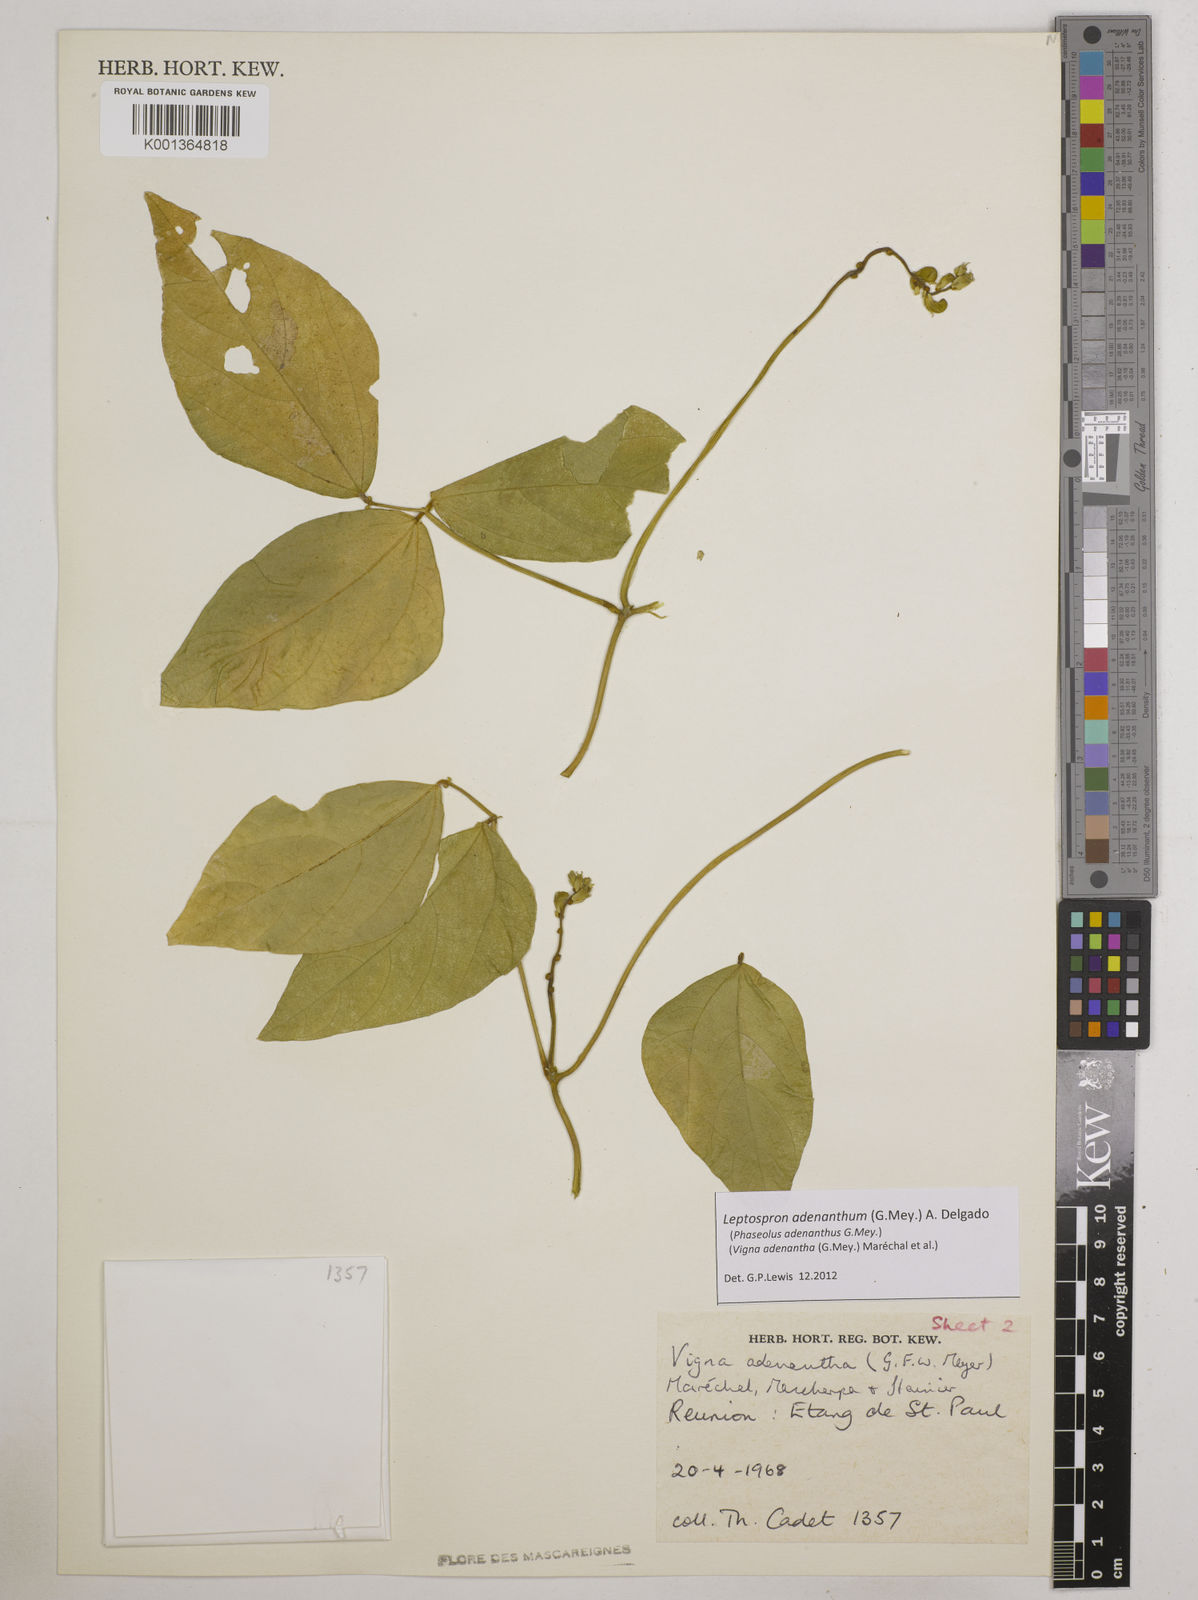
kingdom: Plantae
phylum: Tracheophyta
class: Magnoliopsida
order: Fabales
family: Fabaceae
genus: Leptospron
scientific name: Leptospron adenanthum
